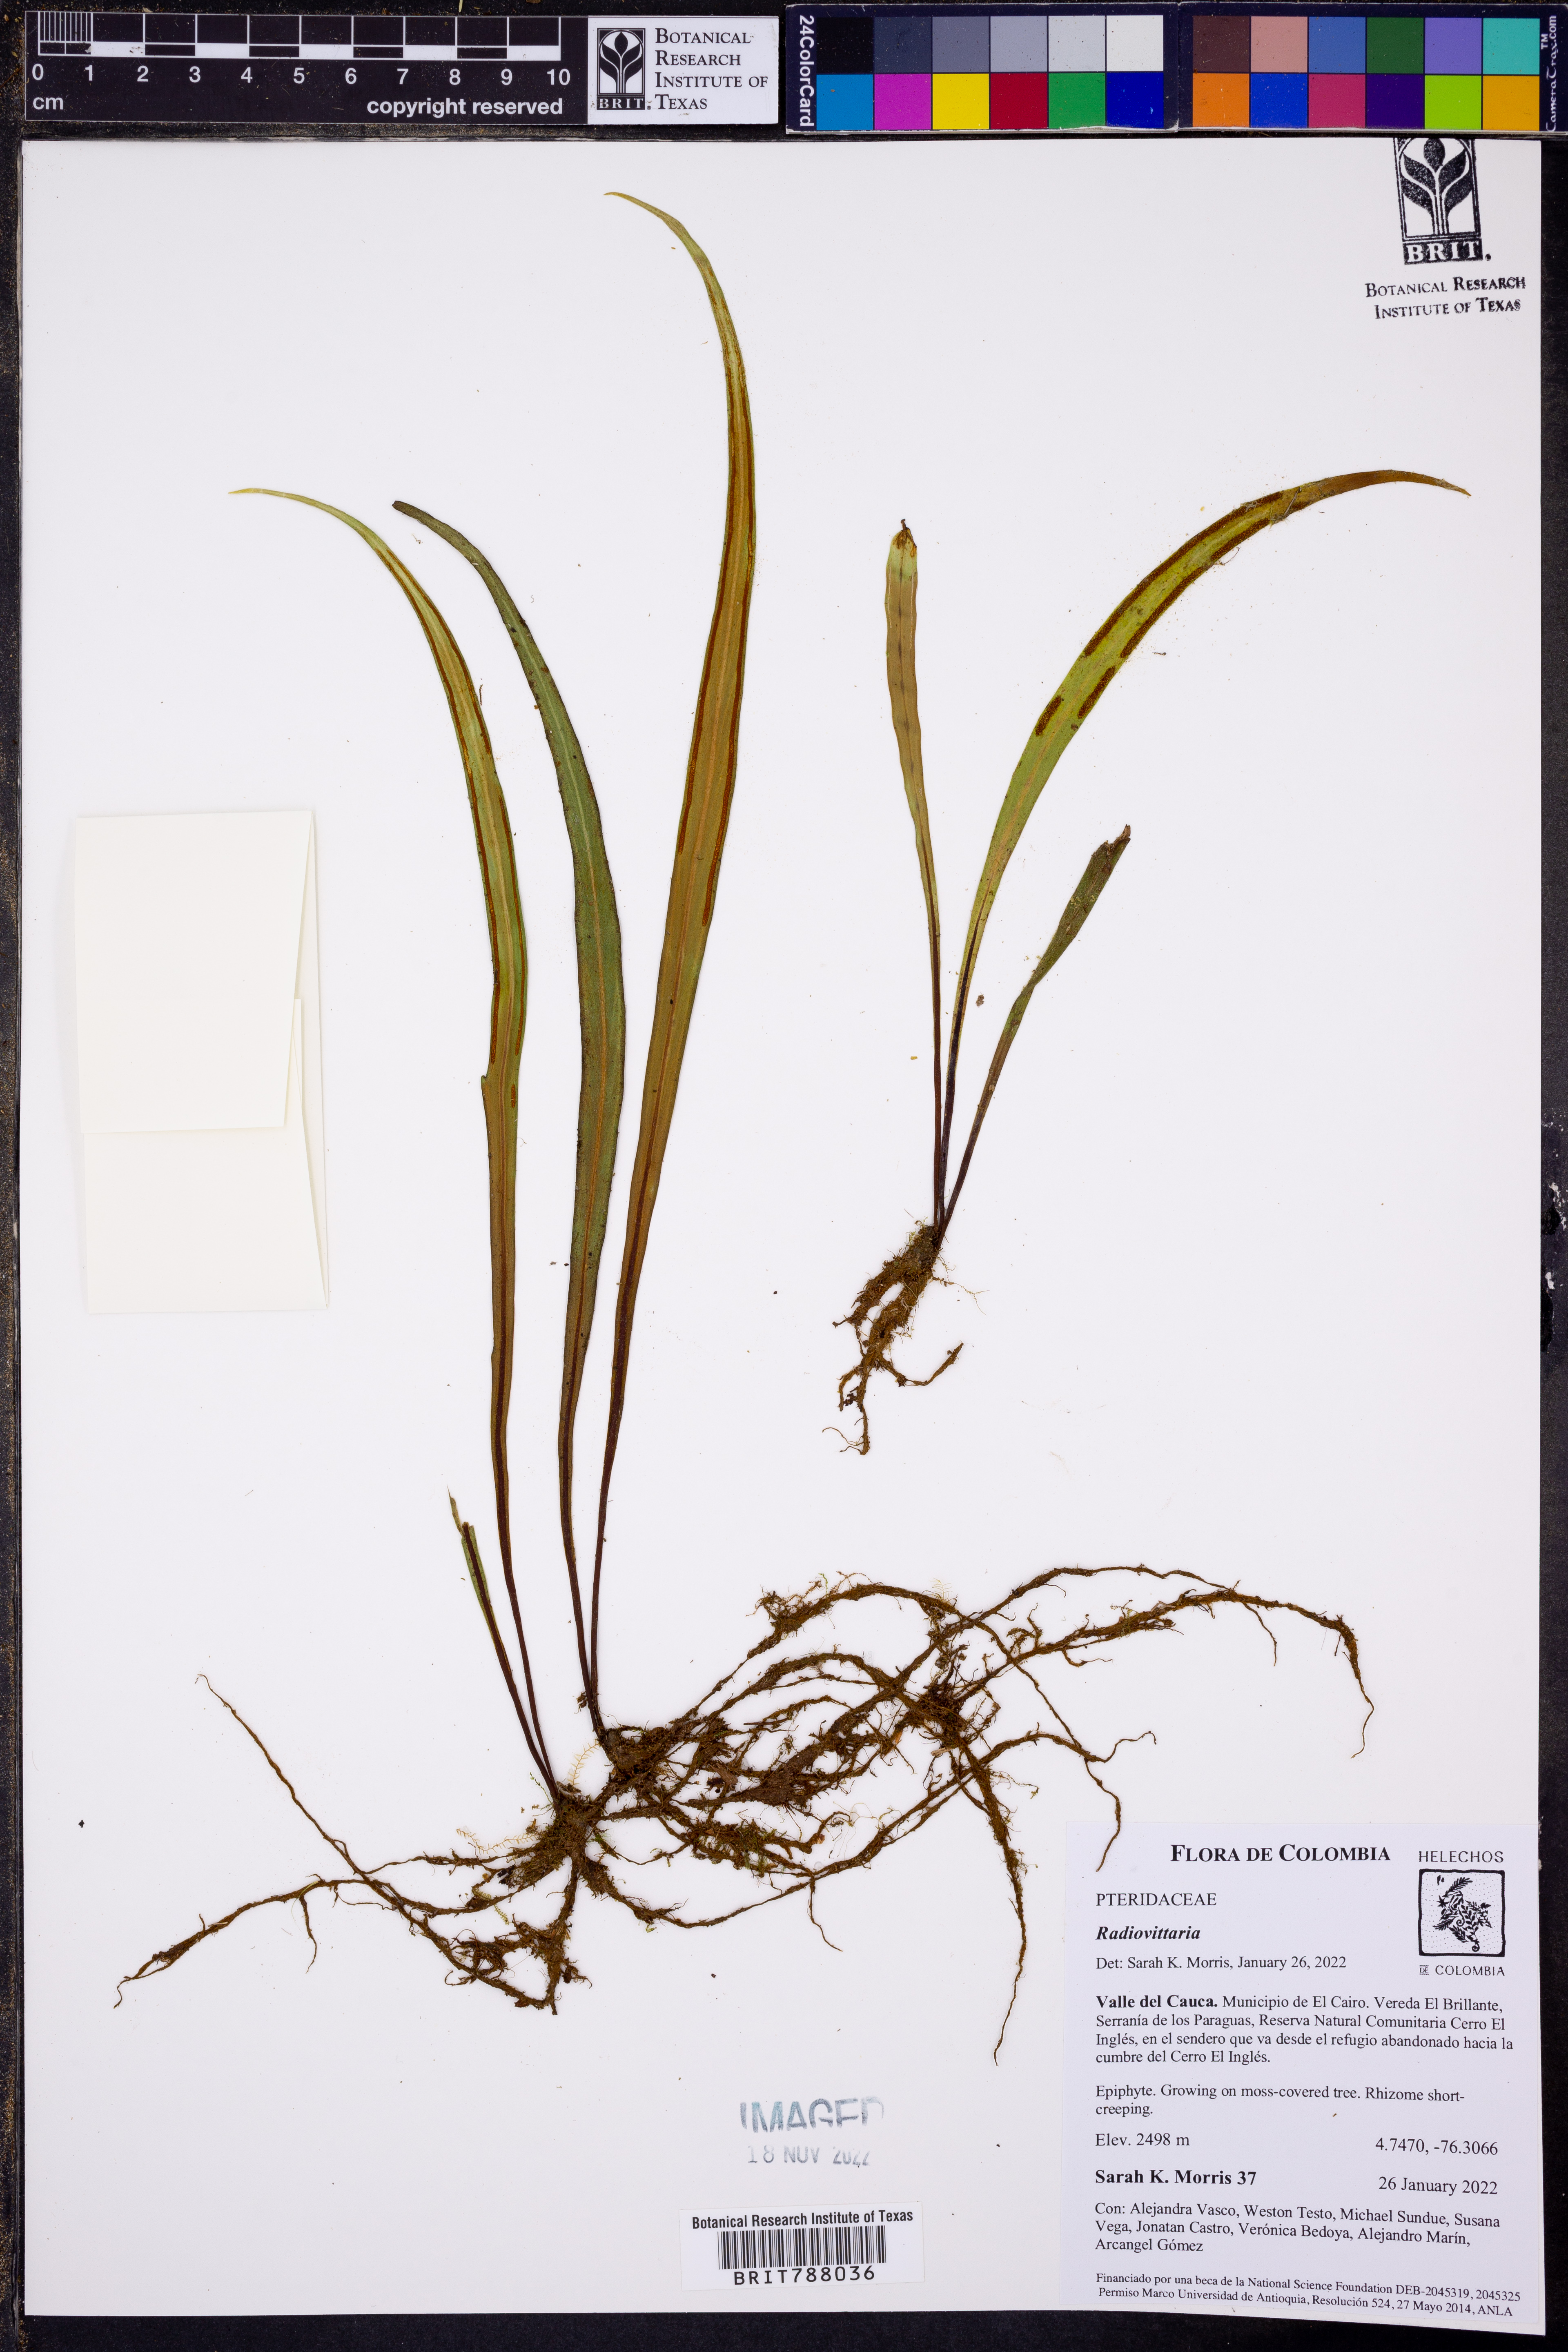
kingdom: Plantae
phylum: Tracheophyta
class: Polypodiopsida
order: Polypodiales
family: Pteridaceae
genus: Radiovittaria
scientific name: Radiovittaria remota
